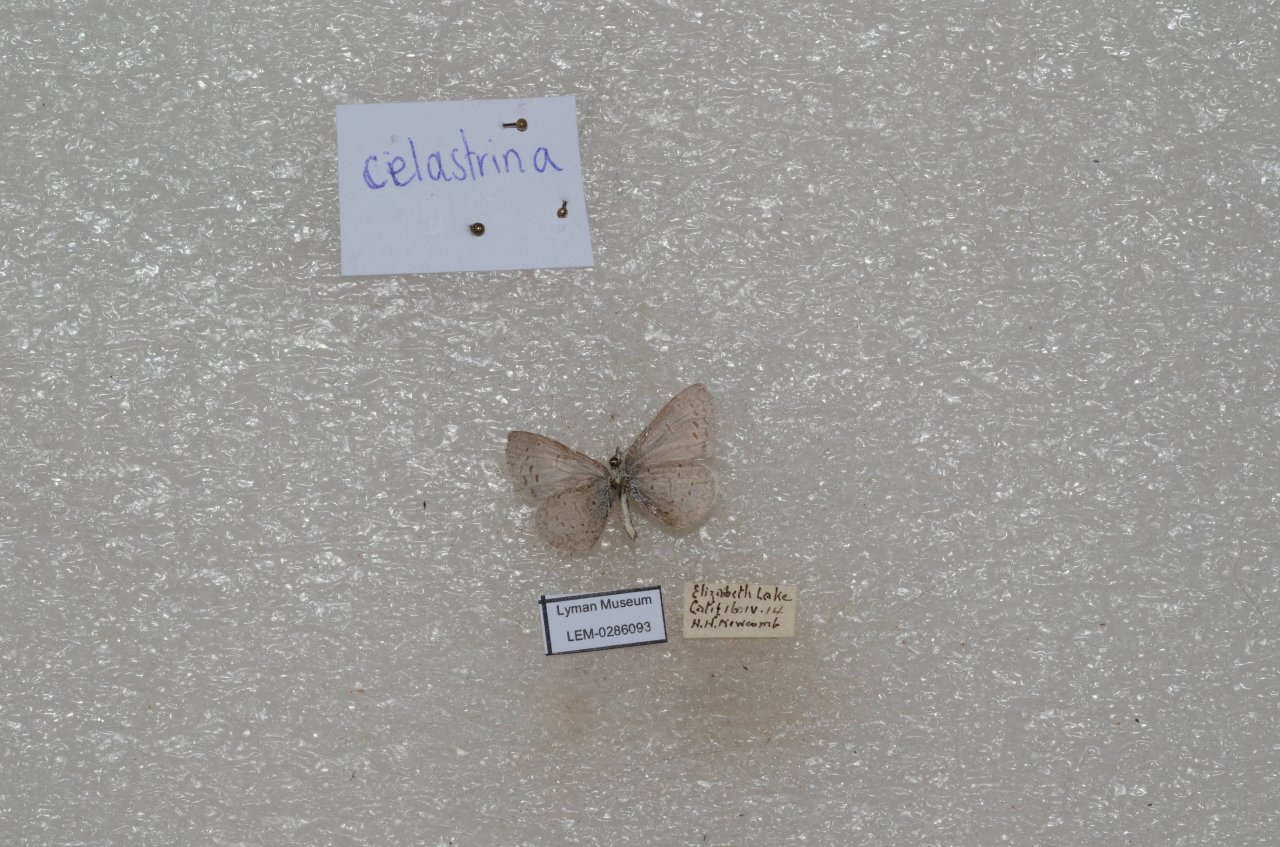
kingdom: Animalia
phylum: Arthropoda
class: Insecta
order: Lepidoptera
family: Lycaenidae
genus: Celastrina
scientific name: Celastrina
